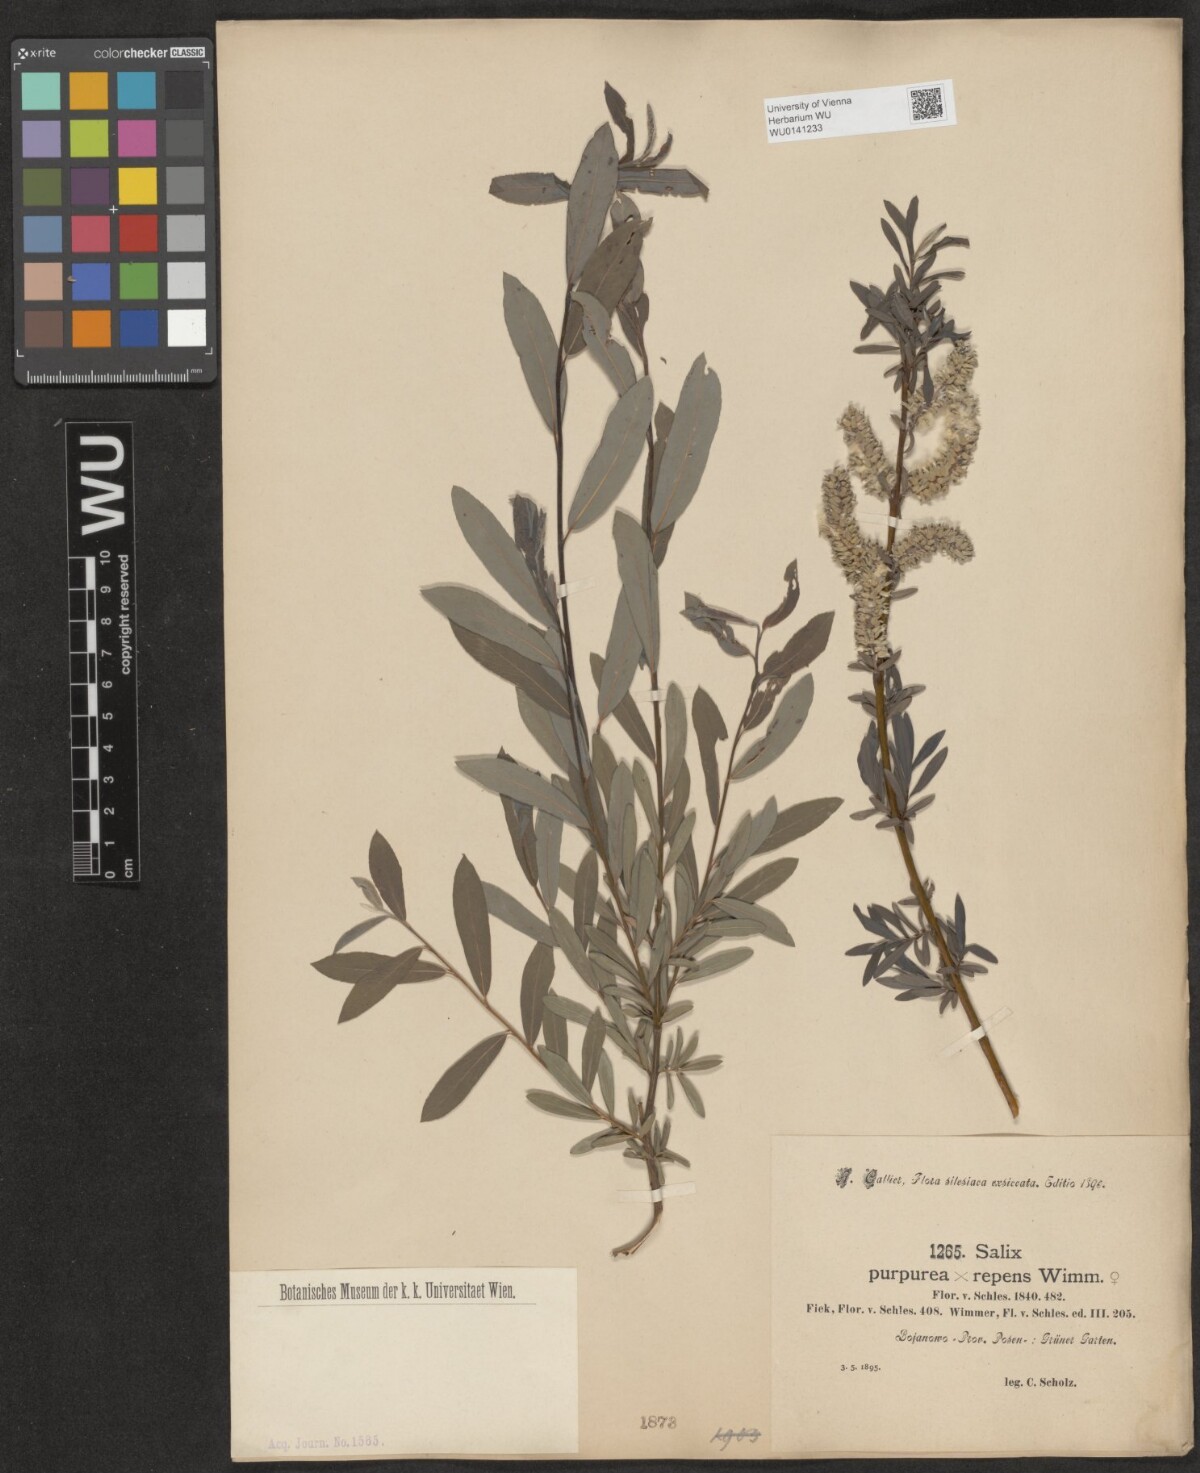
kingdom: Plantae
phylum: Tracheophyta
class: Magnoliopsida
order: Malpighiales
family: Salicaceae
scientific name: Salicaceae
